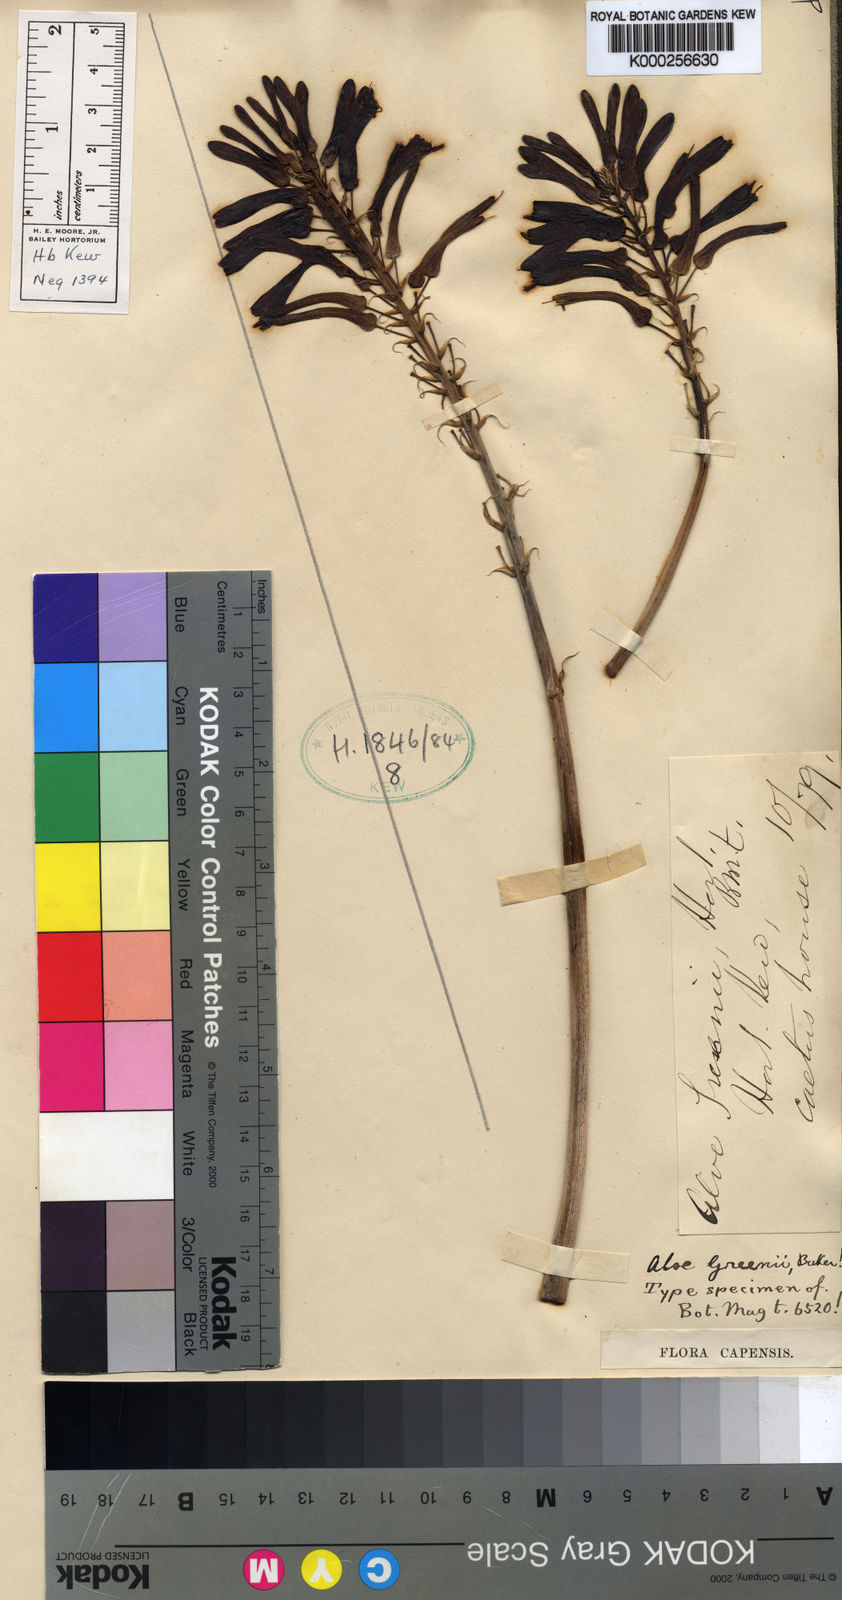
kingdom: Plantae
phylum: Tracheophyta
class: Liliopsida
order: Asparagales
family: Asphodelaceae
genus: Aloe
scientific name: Aloe greenii
